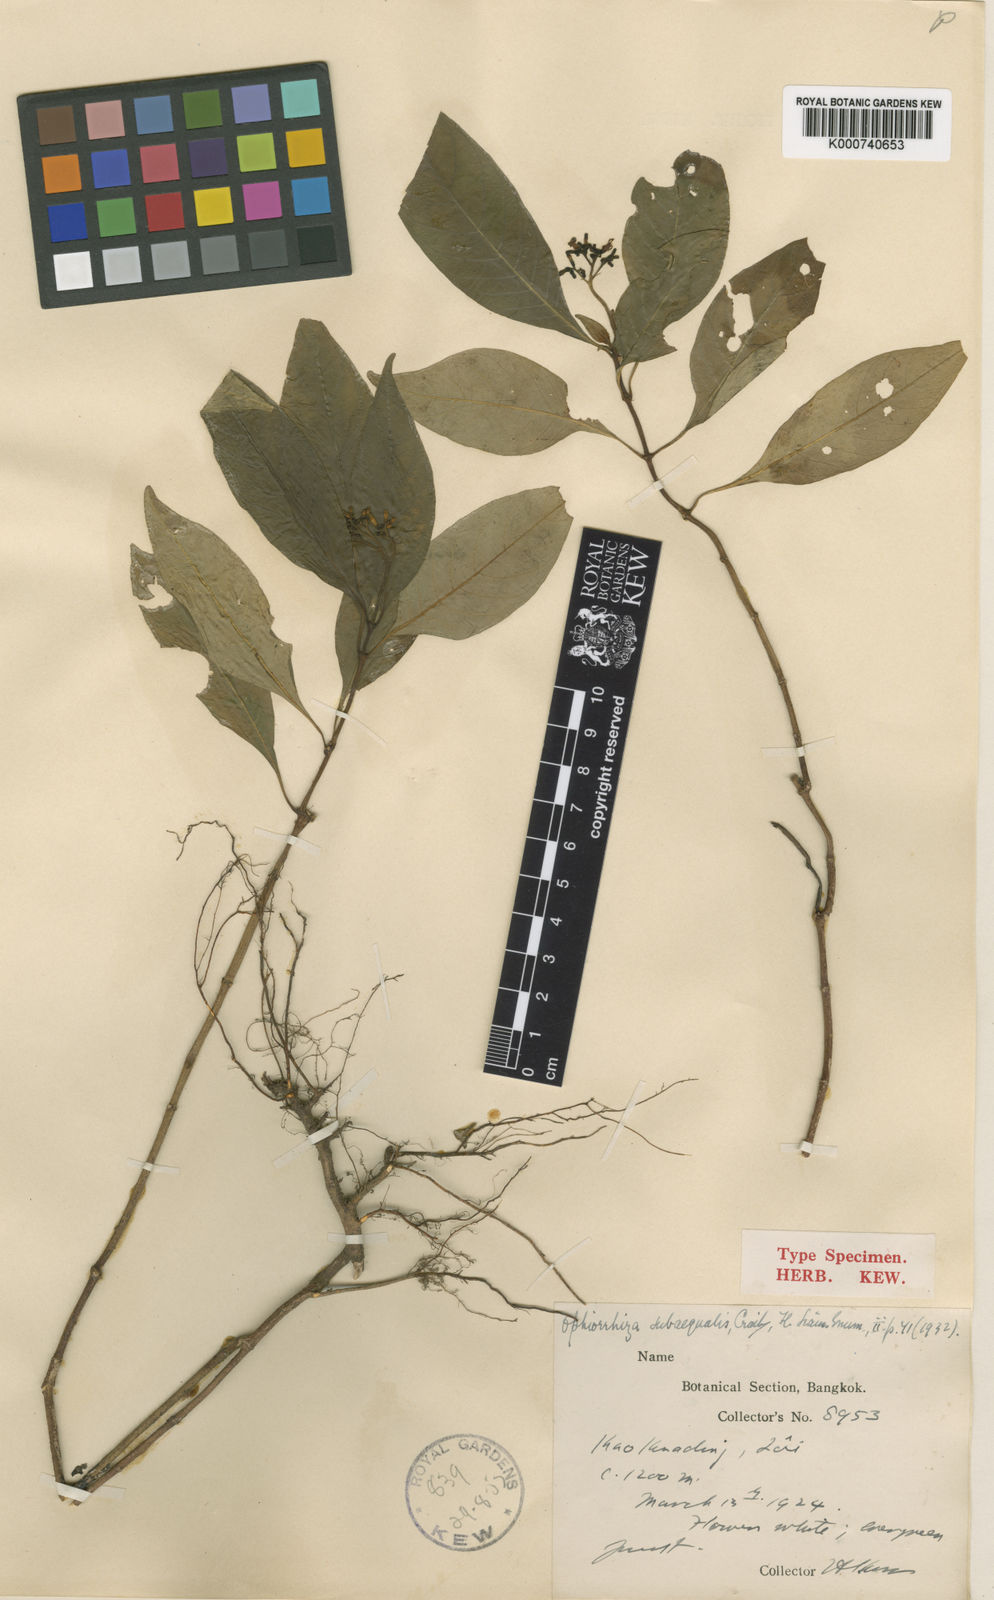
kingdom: Plantae
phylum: Tracheophyta
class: Magnoliopsida
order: Gentianales
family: Rubiaceae
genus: Ophiorrhiza
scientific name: Ophiorrhiza subaequalis
